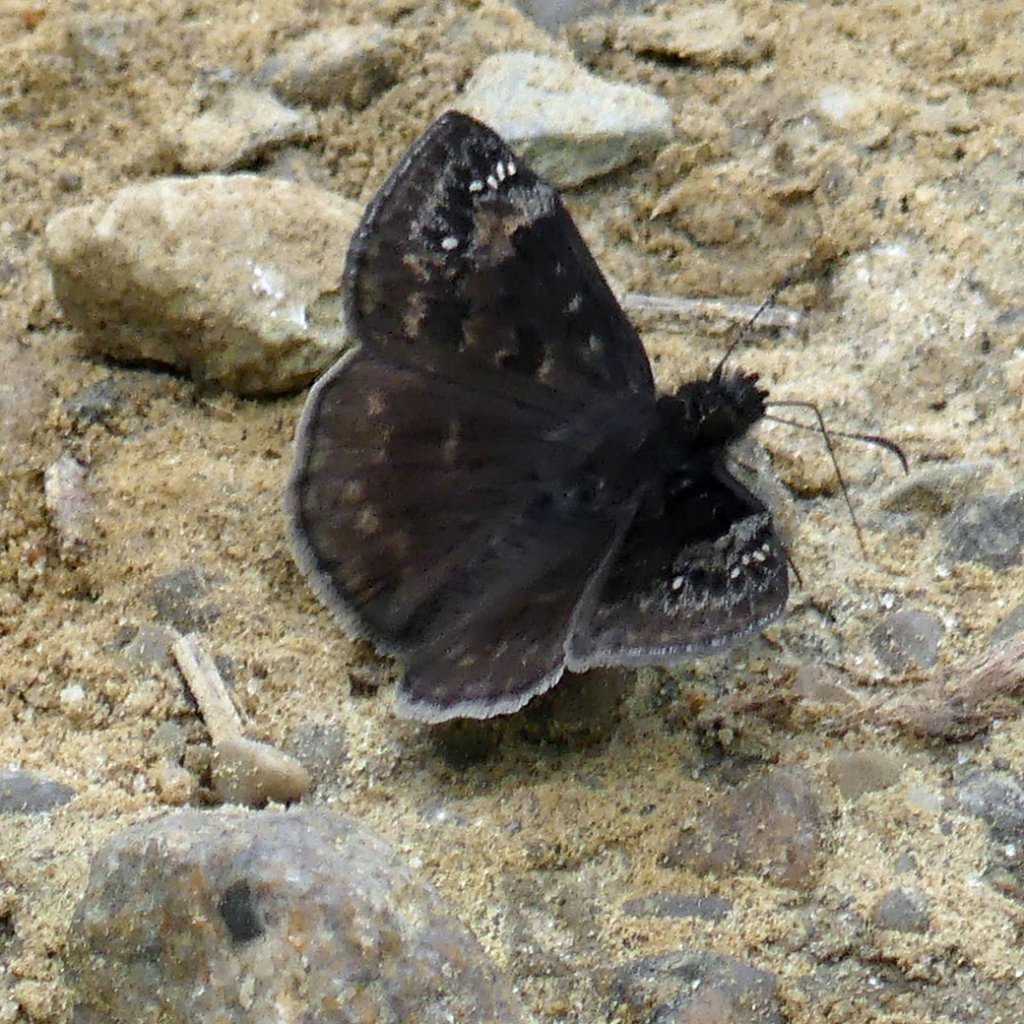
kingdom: Animalia
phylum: Arthropoda
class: Insecta
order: Lepidoptera
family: Hesperiidae
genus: Gesta
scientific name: Gesta
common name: Wild Indigo Duskywing
